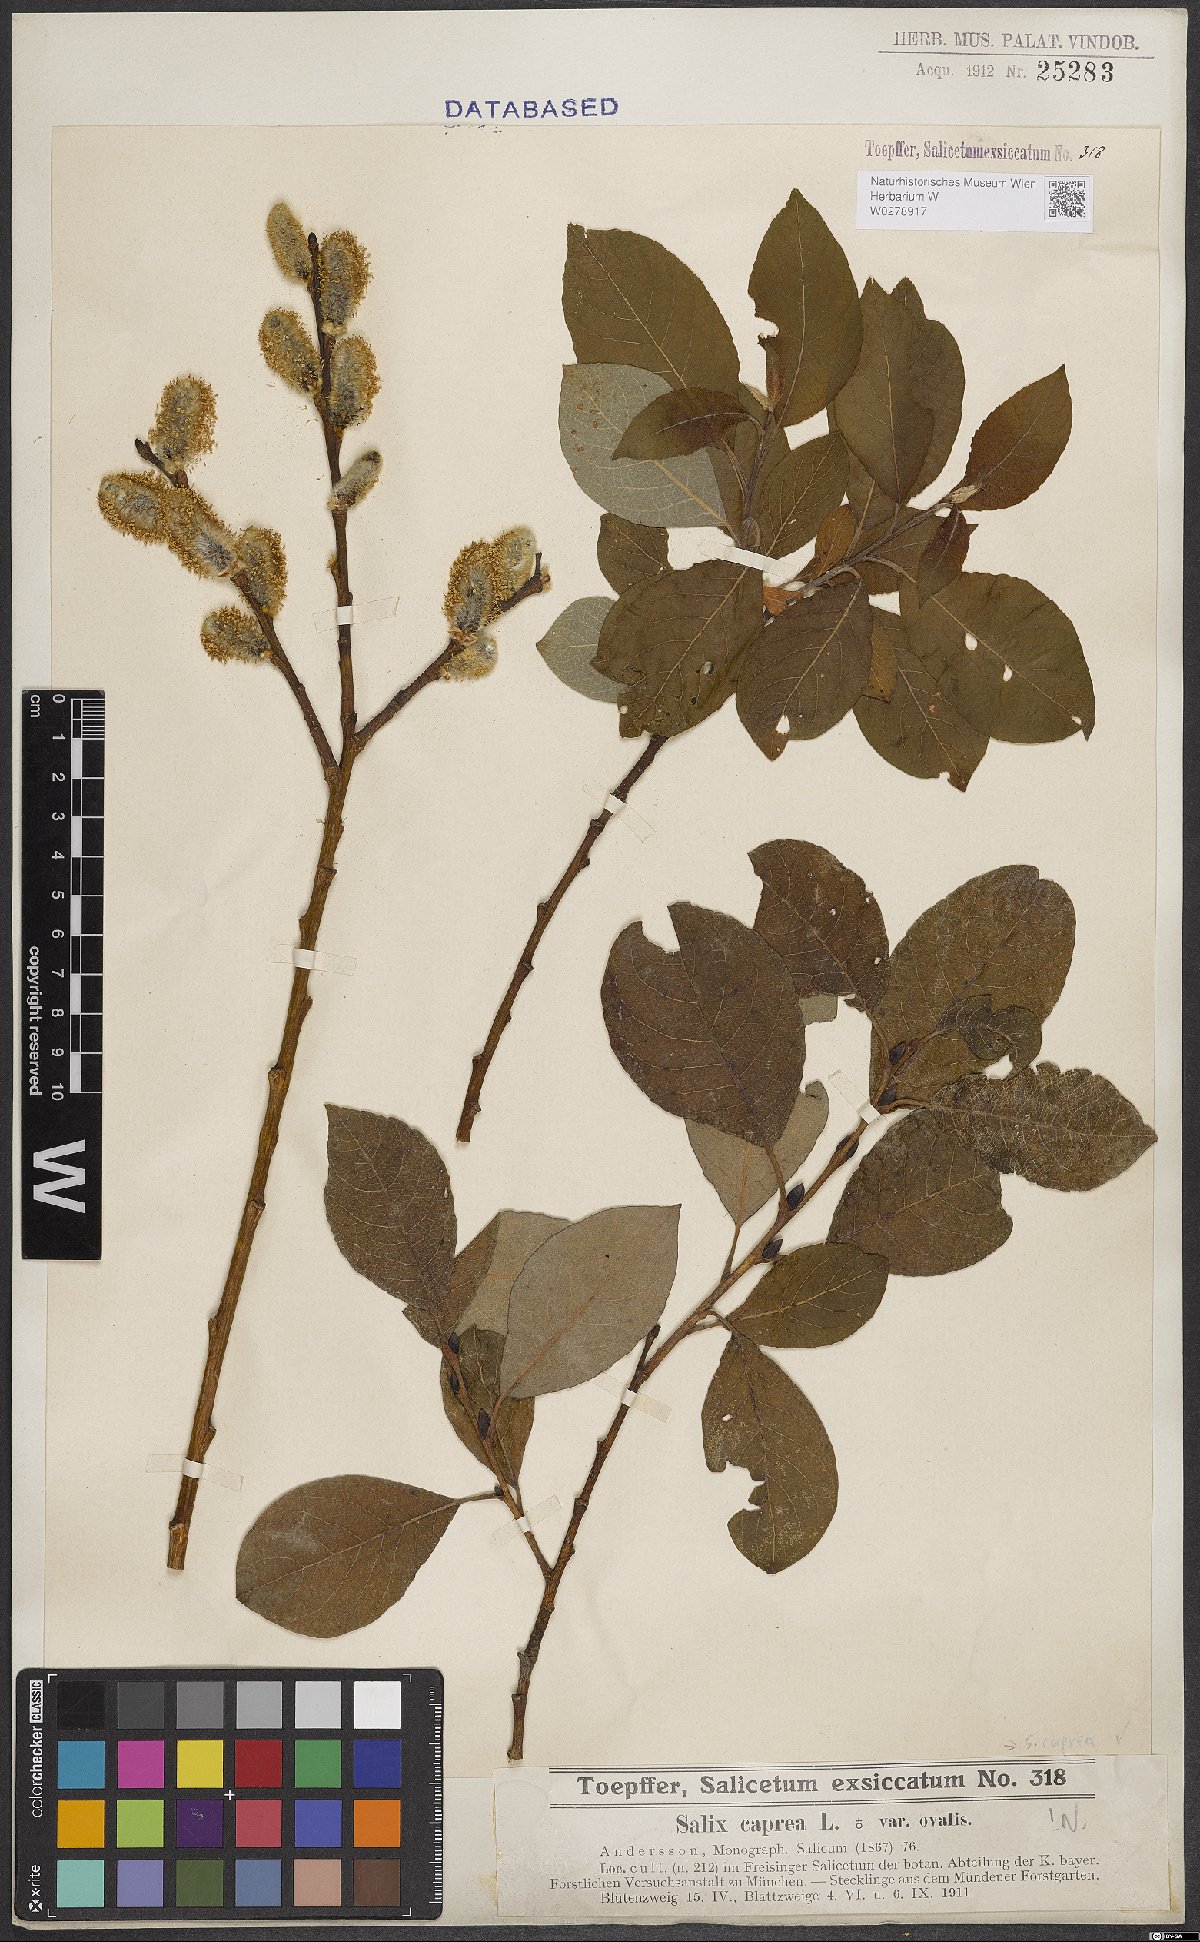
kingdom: Plantae
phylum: Tracheophyta
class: Magnoliopsida
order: Malpighiales
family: Salicaceae
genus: Salix
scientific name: Salix caprea
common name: Goat willow
